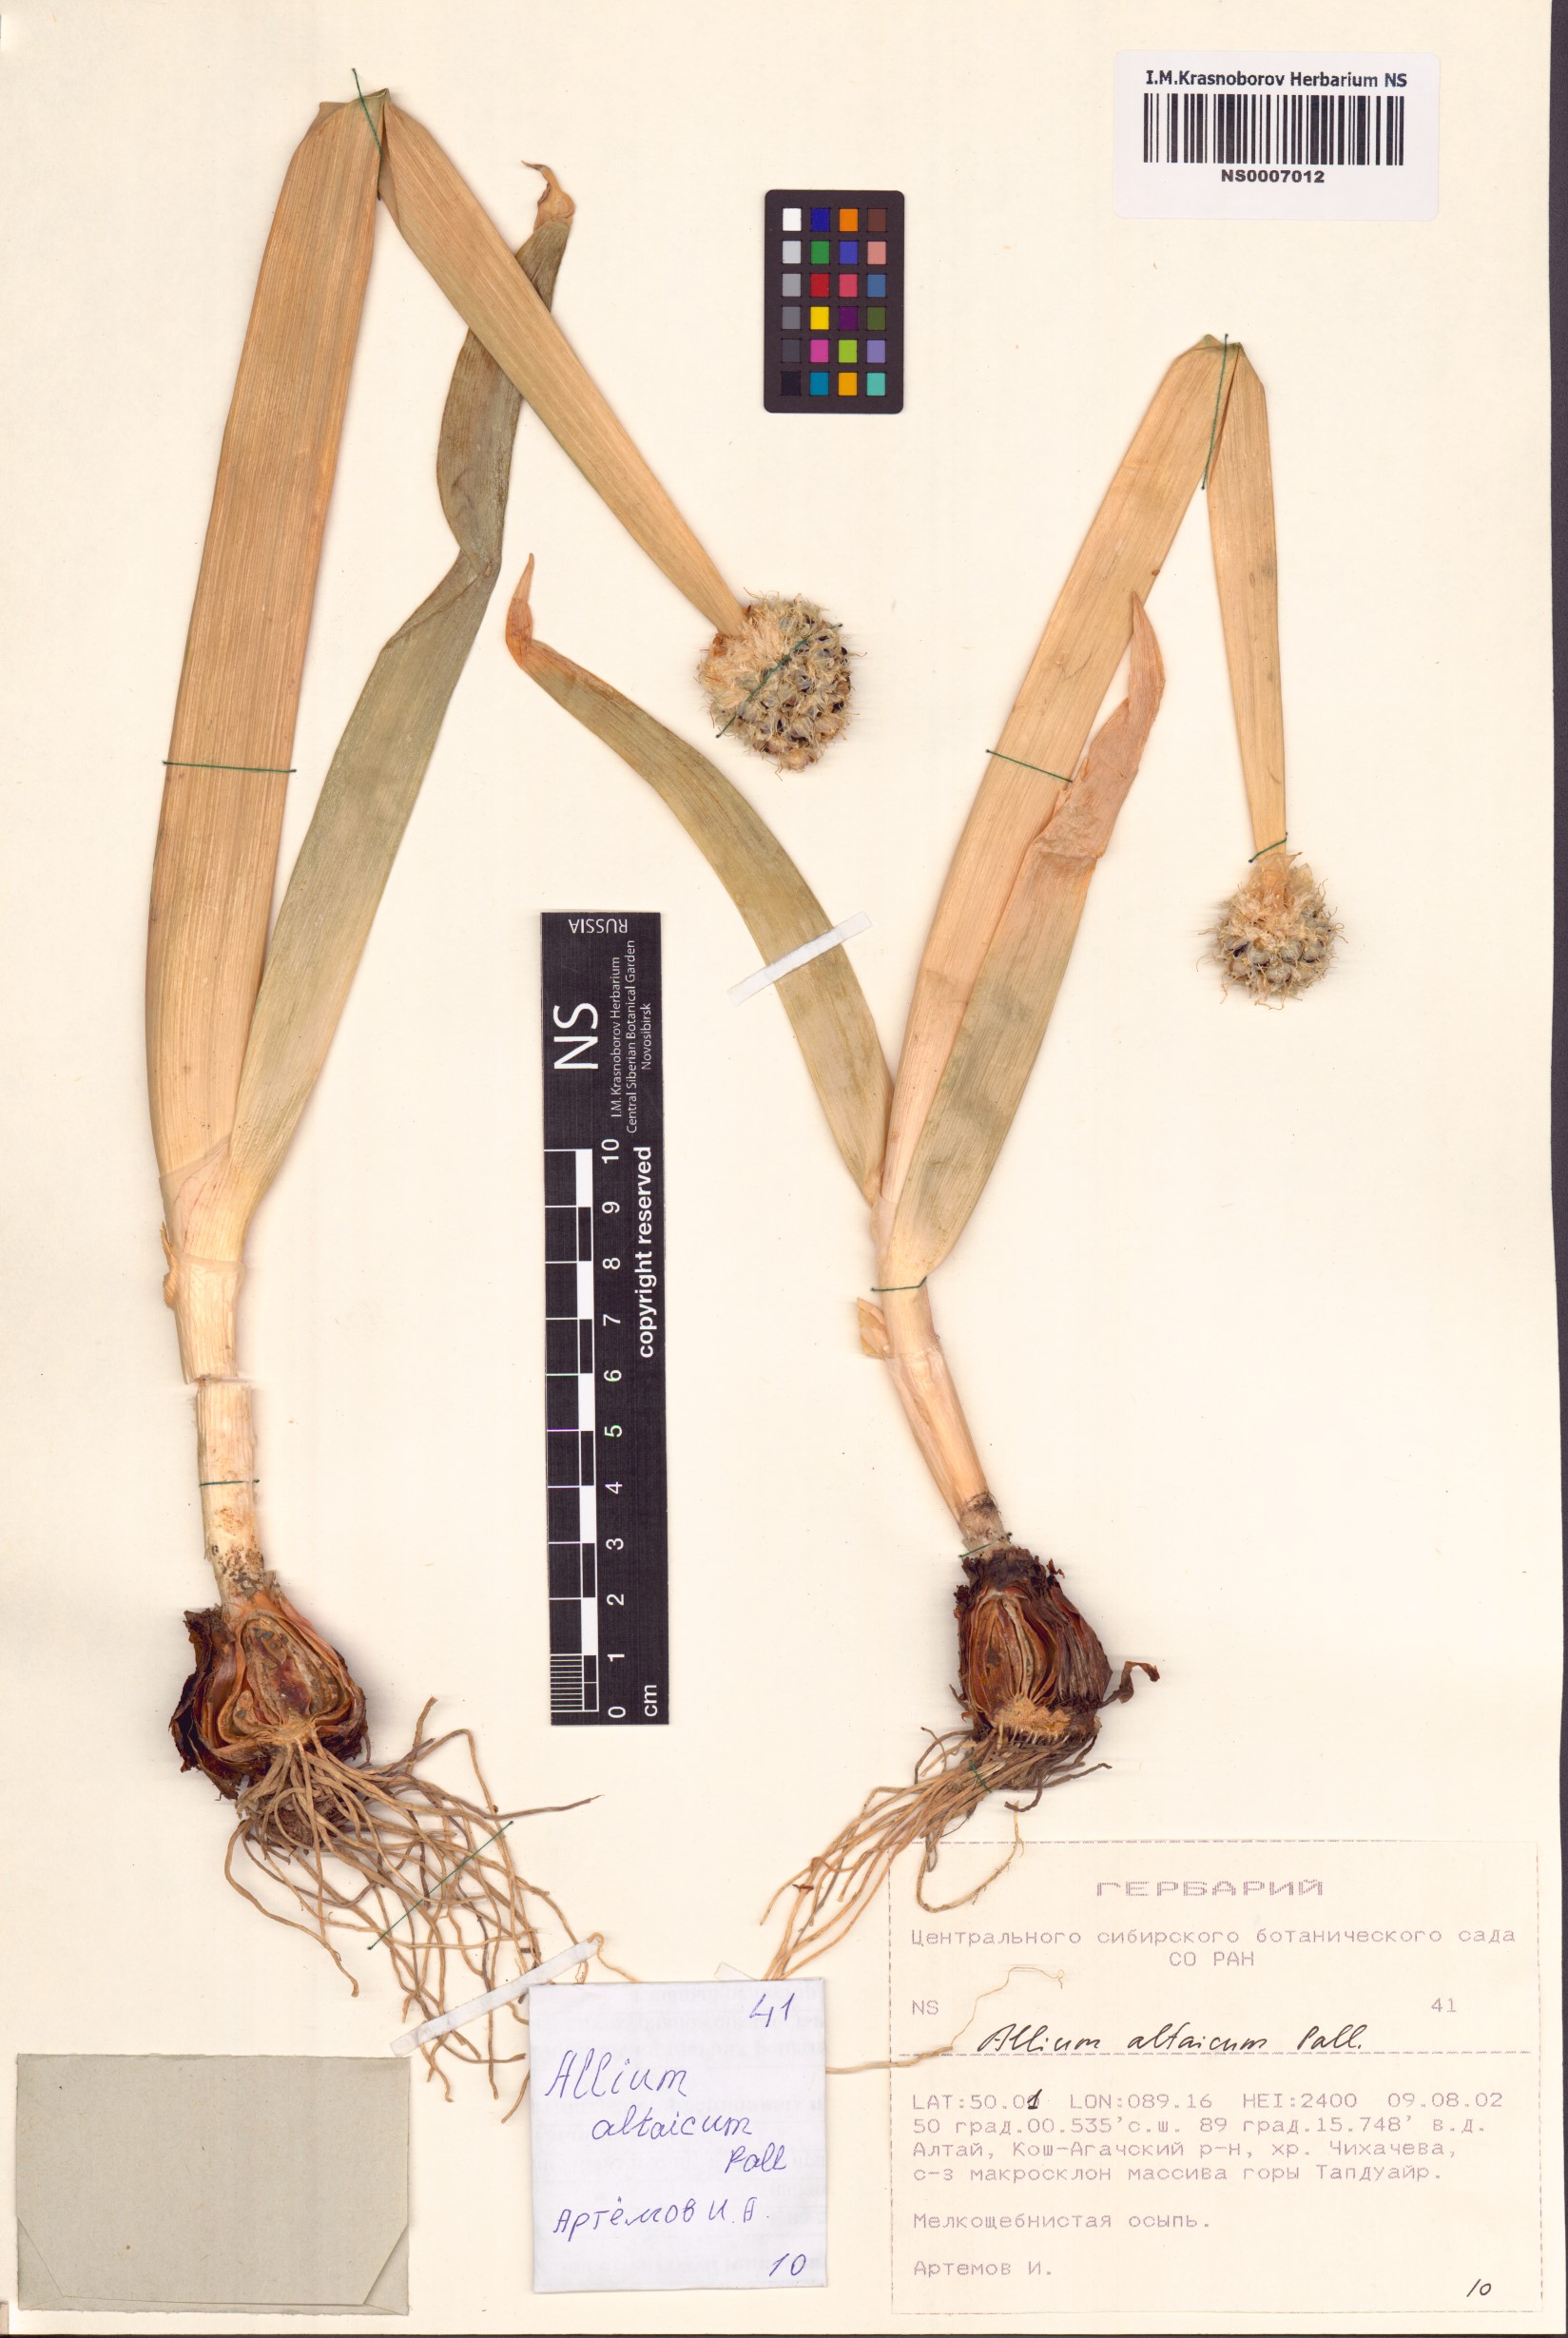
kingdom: Plantae
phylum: Tracheophyta
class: Liliopsida
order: Asparagales
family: Amaryllidaceae
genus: Allium
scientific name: Allium altaicum
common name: Altai onion
